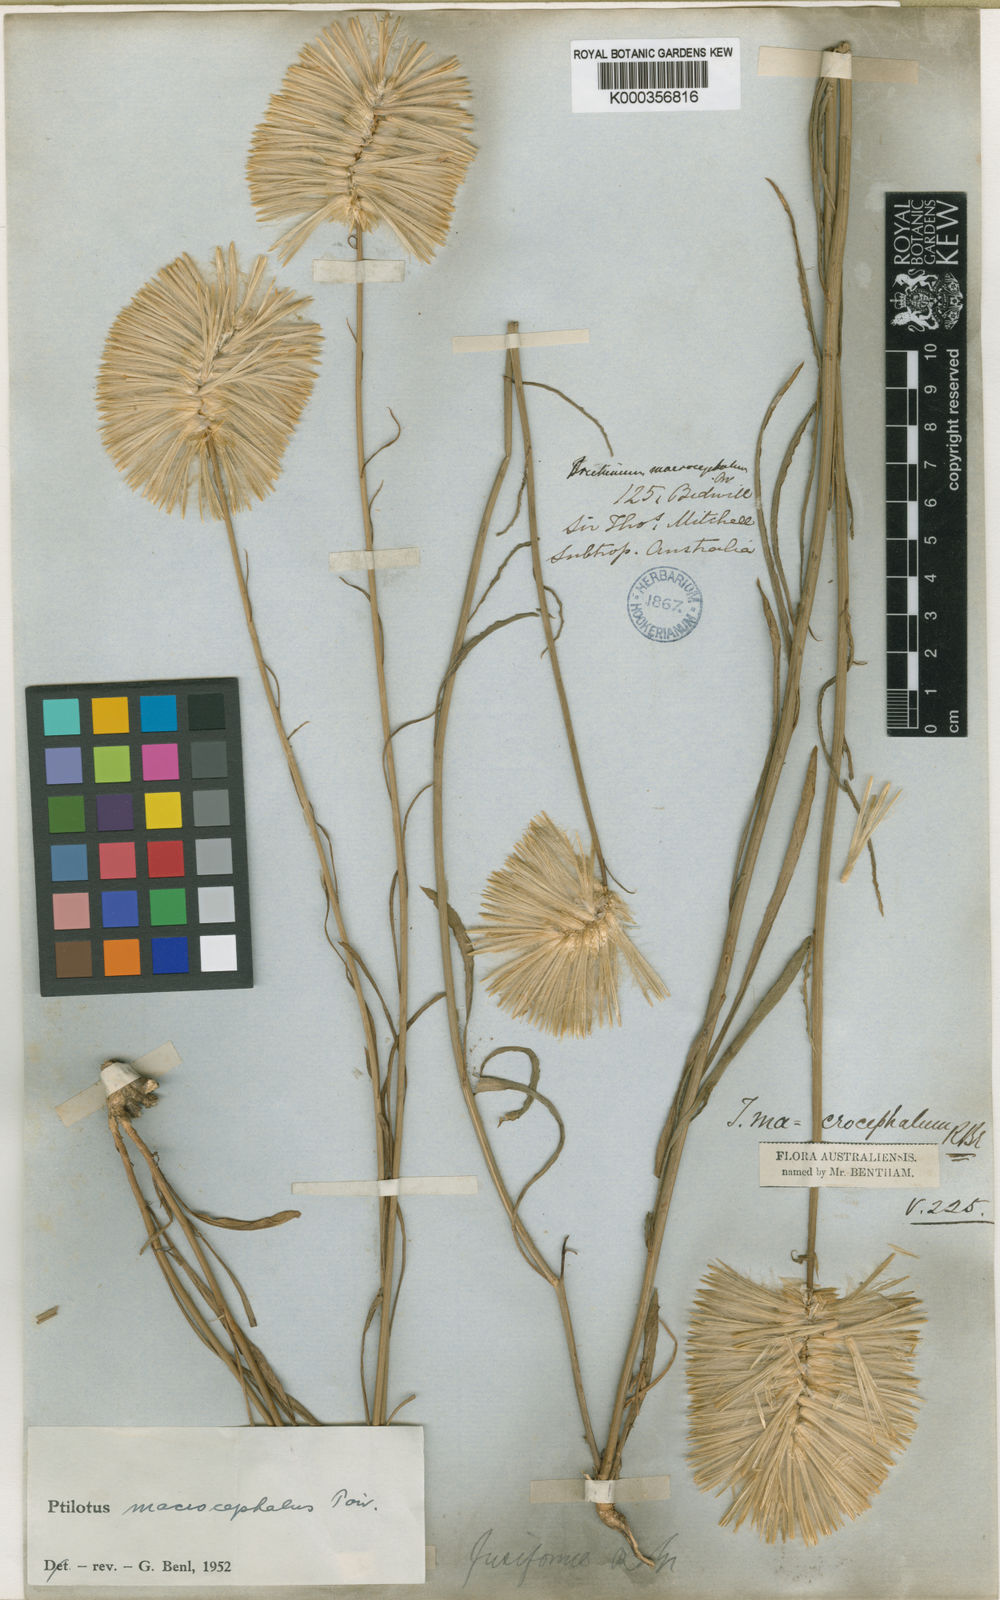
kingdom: Plantae
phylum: Tracheophyta
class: Magnoliopsida
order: Caryophyllales
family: Amaranthaceae
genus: Ptilotus
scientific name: Ptilotus macrocephalus
